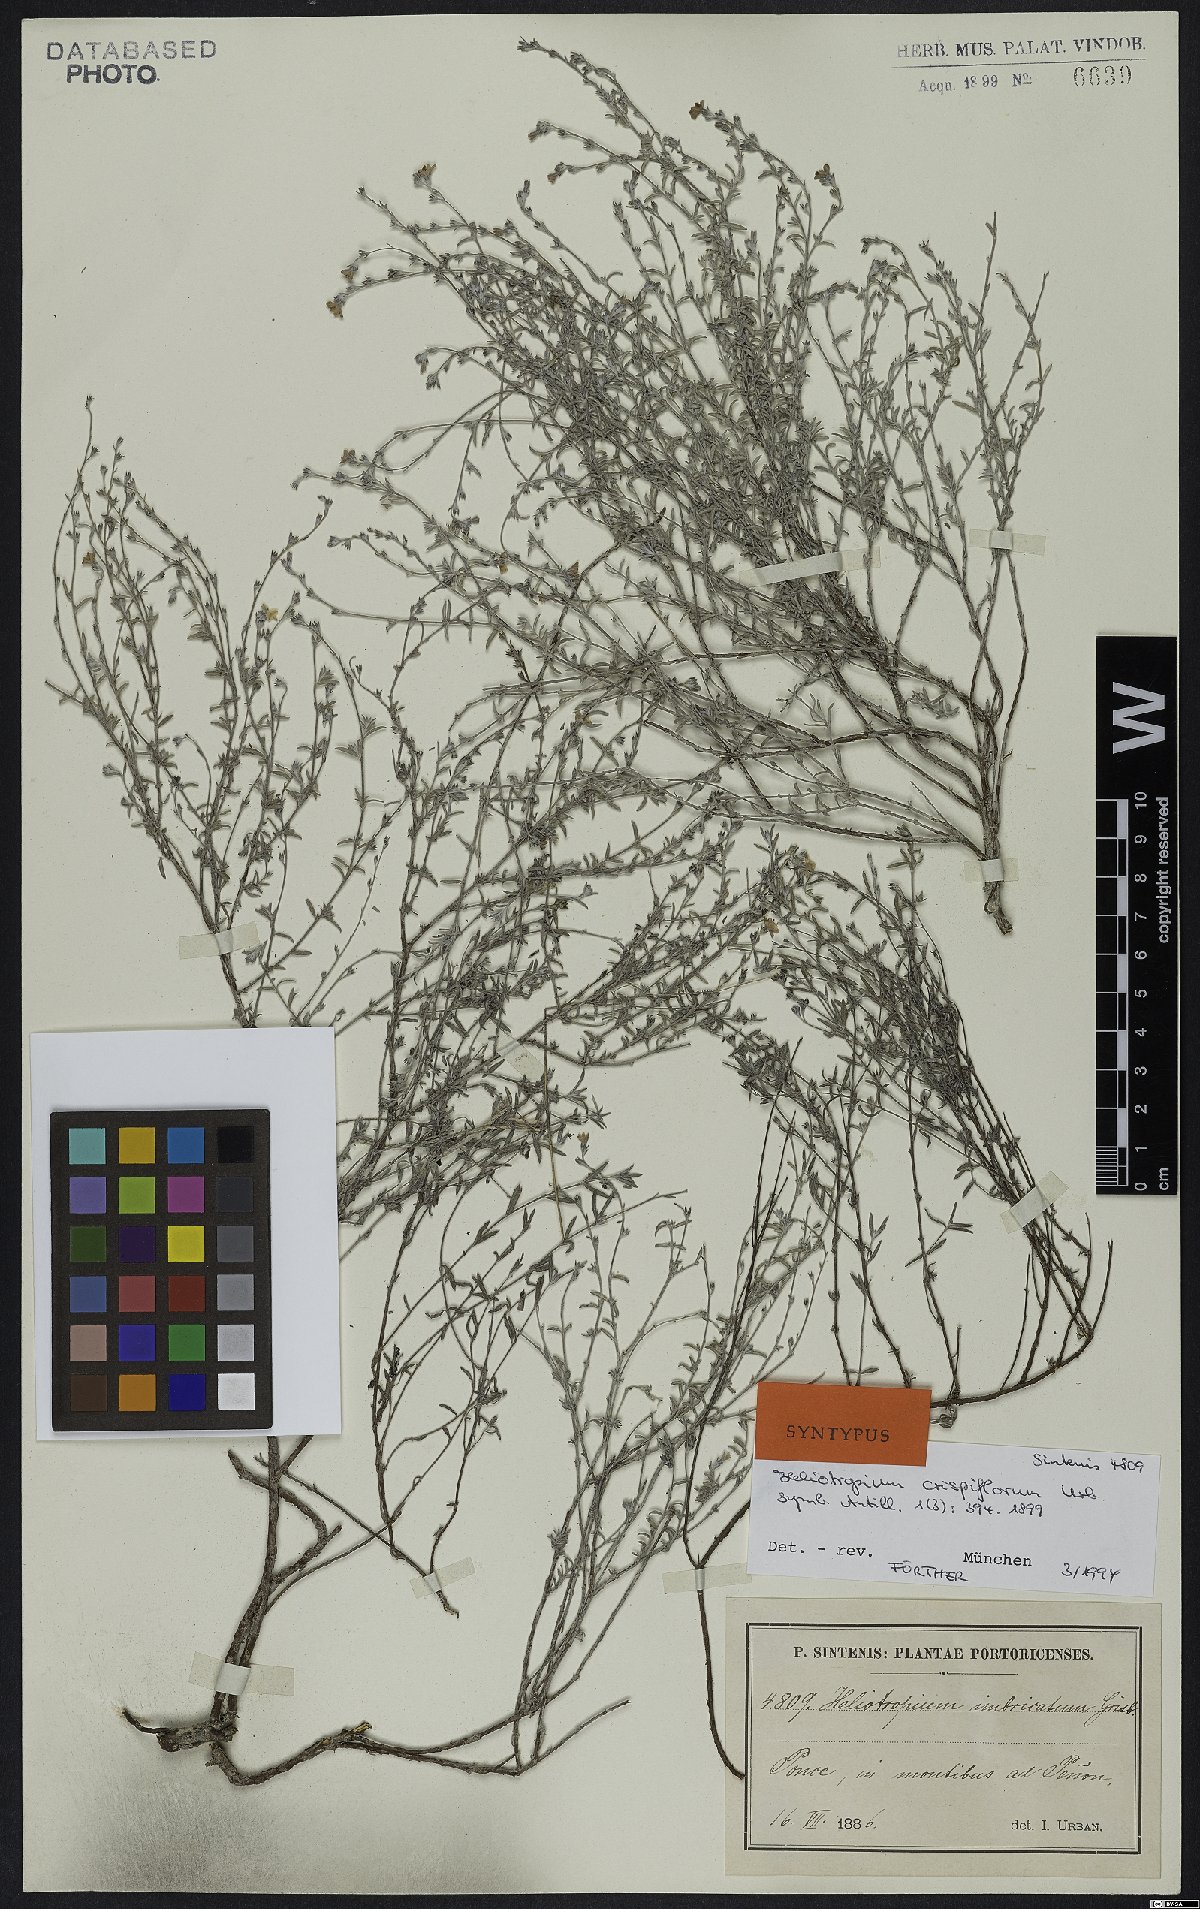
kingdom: Plantae
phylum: Tracheophyta
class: Magnoliopsida
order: Boraginales
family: Heliotropiaceae
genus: Euploca
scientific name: Euploca microphylla
